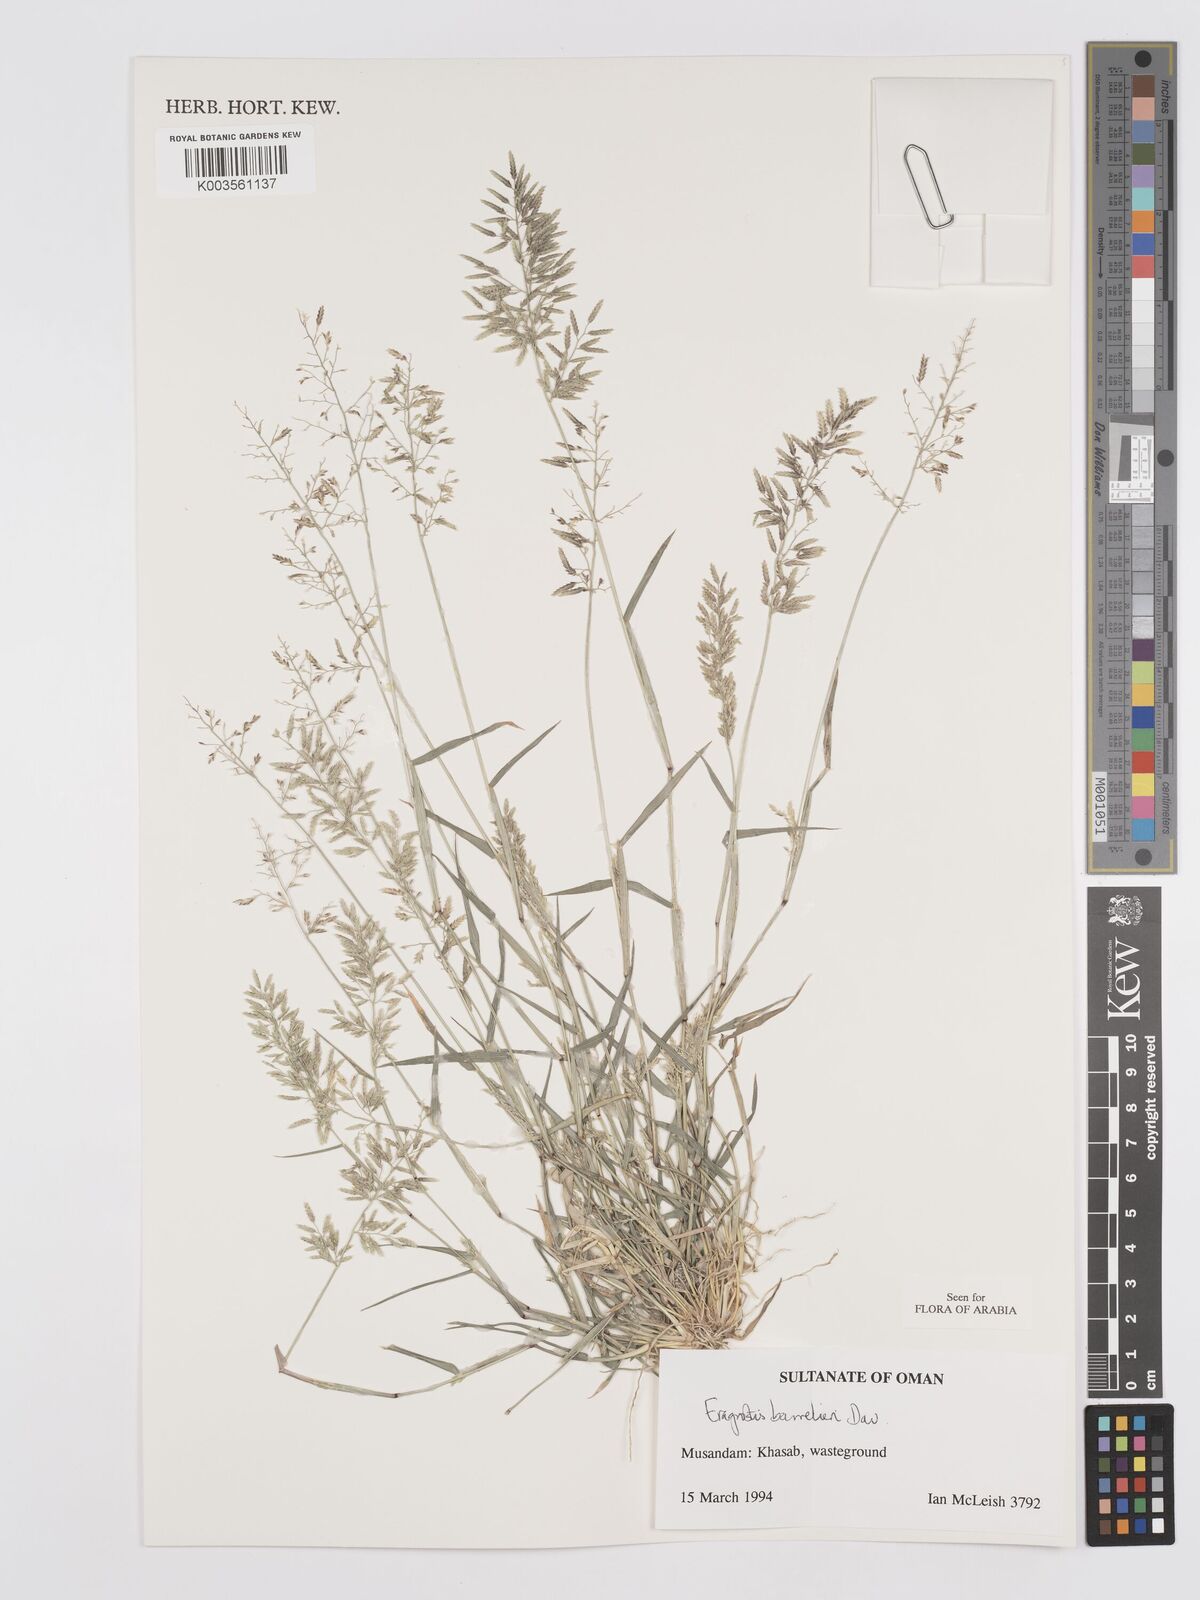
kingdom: Plantae
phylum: Tracheophyta
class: Liliopsida
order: Poales
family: Poaceae
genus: Eragrostis
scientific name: Eragrostis barrelieri
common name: Mediterranean lovegrass
